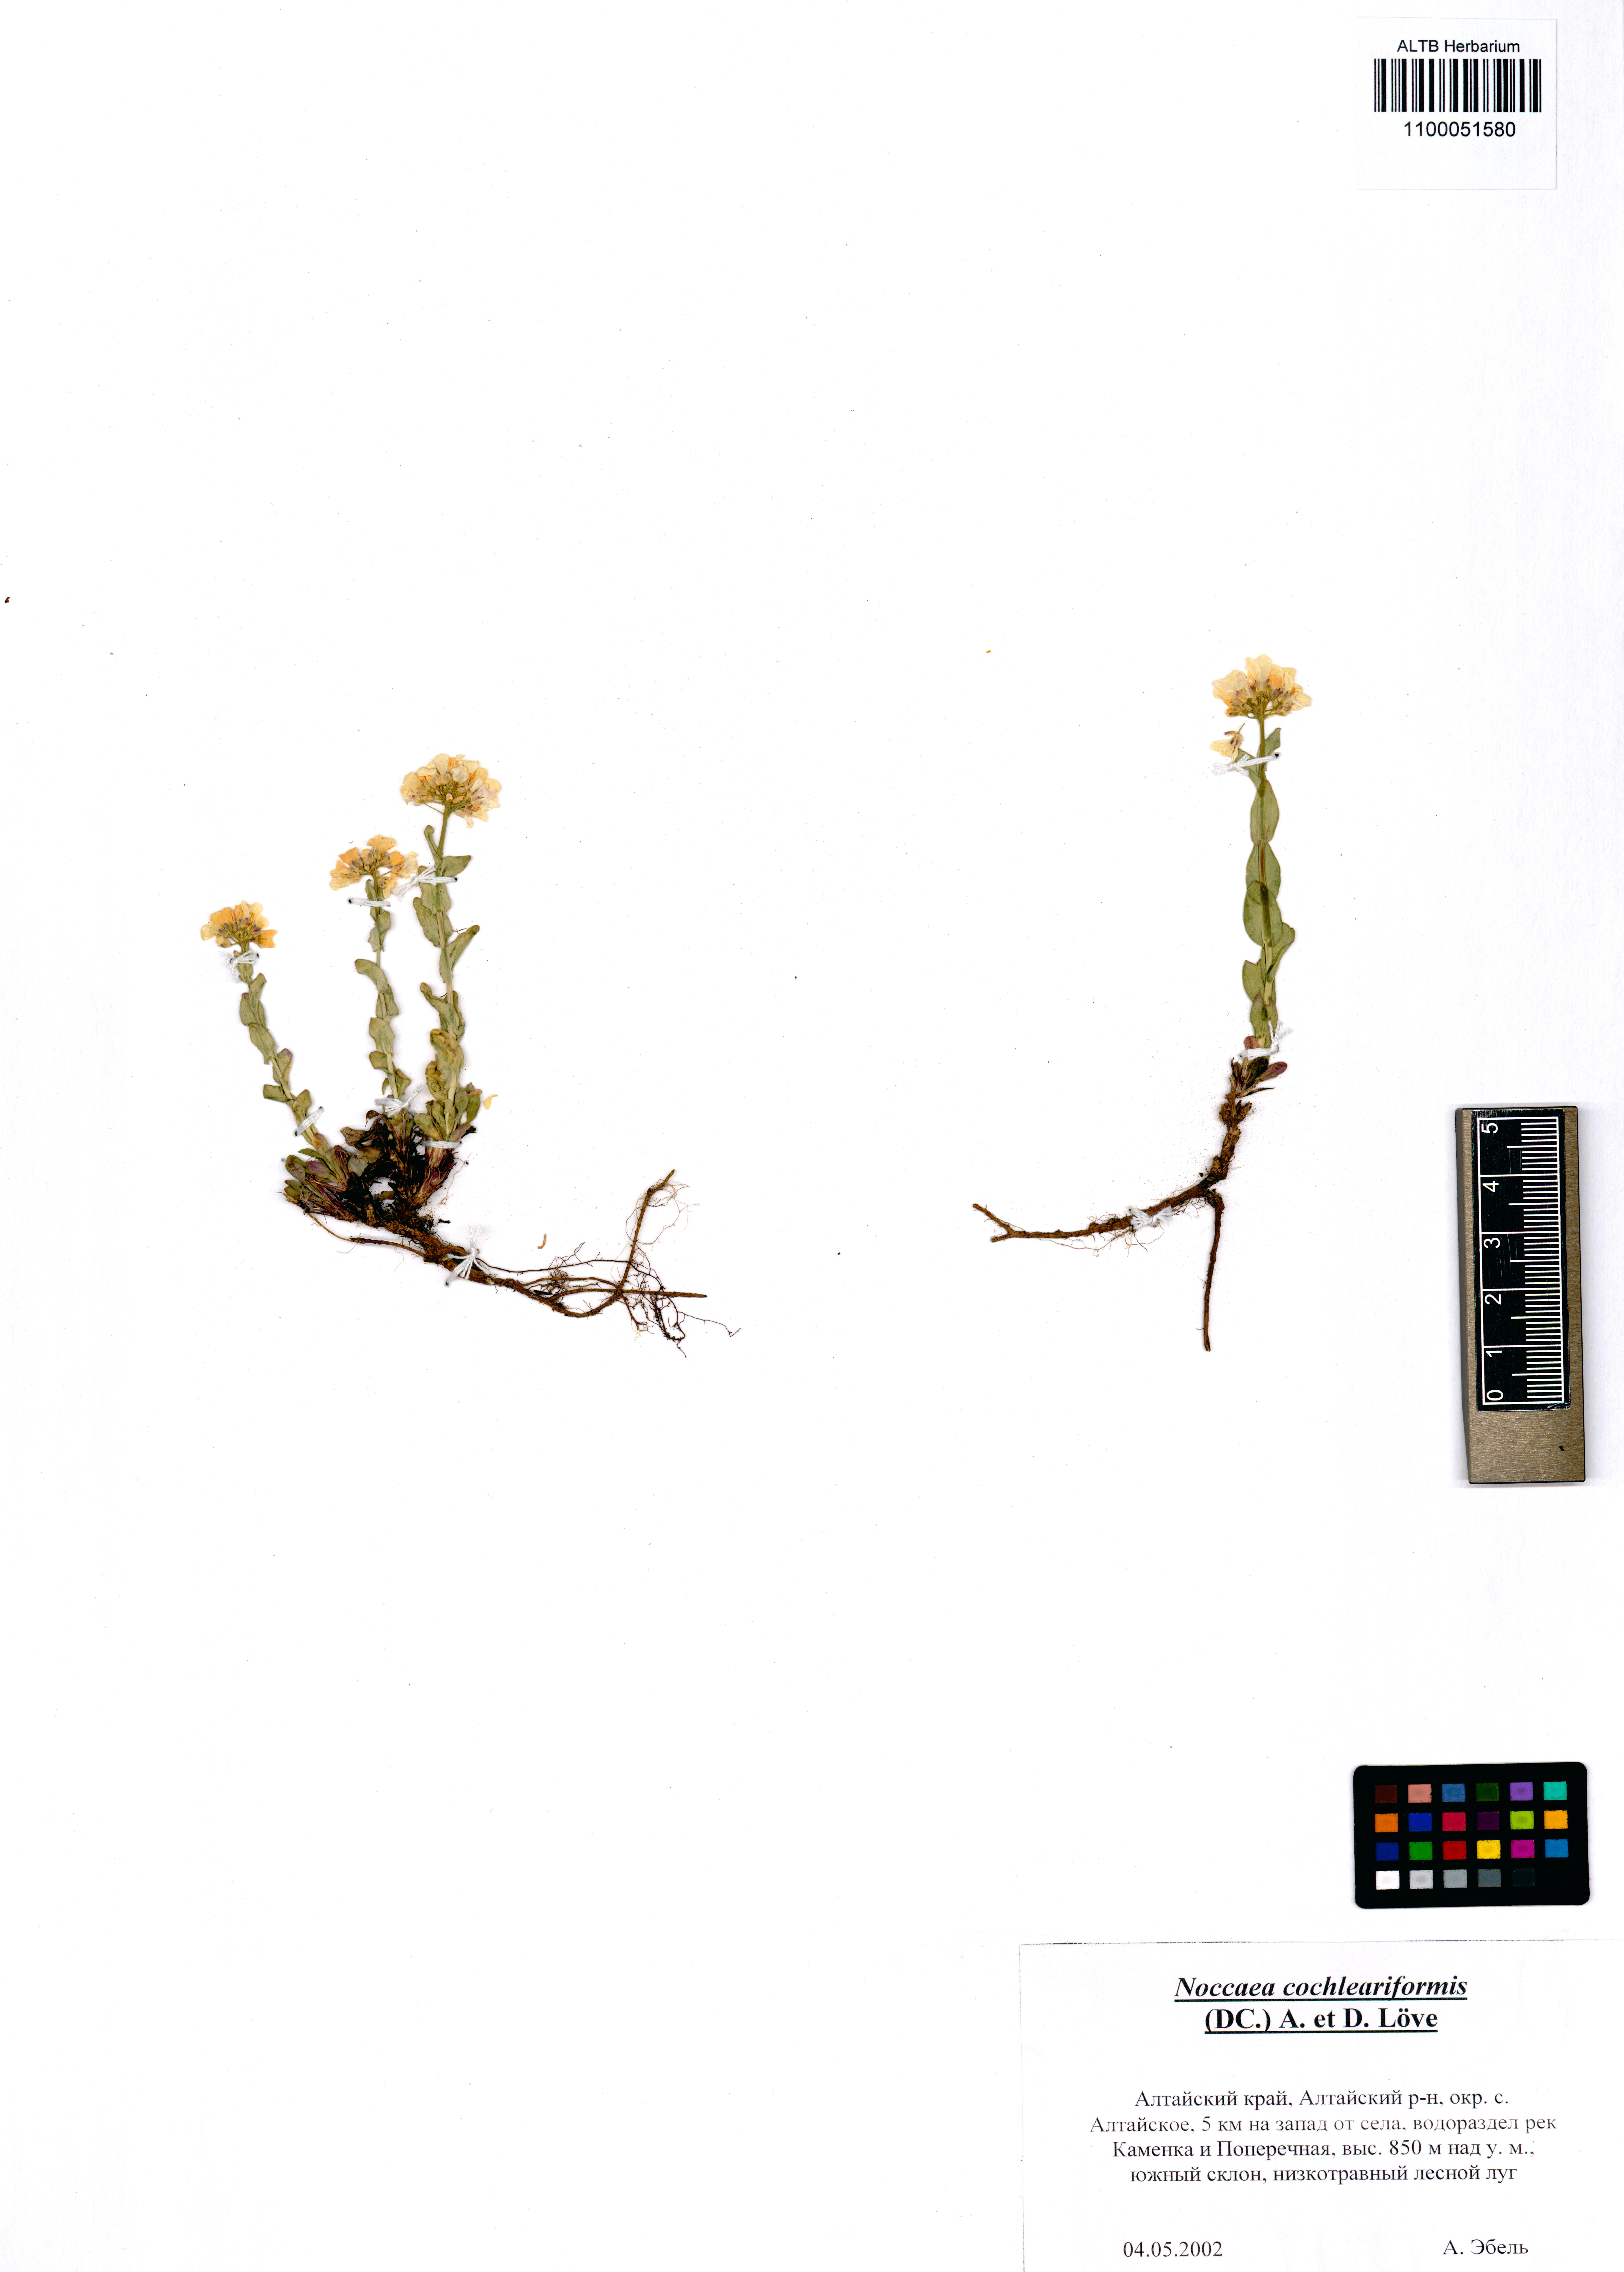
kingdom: Plantae
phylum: Tracheophyta
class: Magnoliopsida
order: Brassicales
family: Brassicaceae
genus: Noccaea
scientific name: Noccaea thlaspidioides
